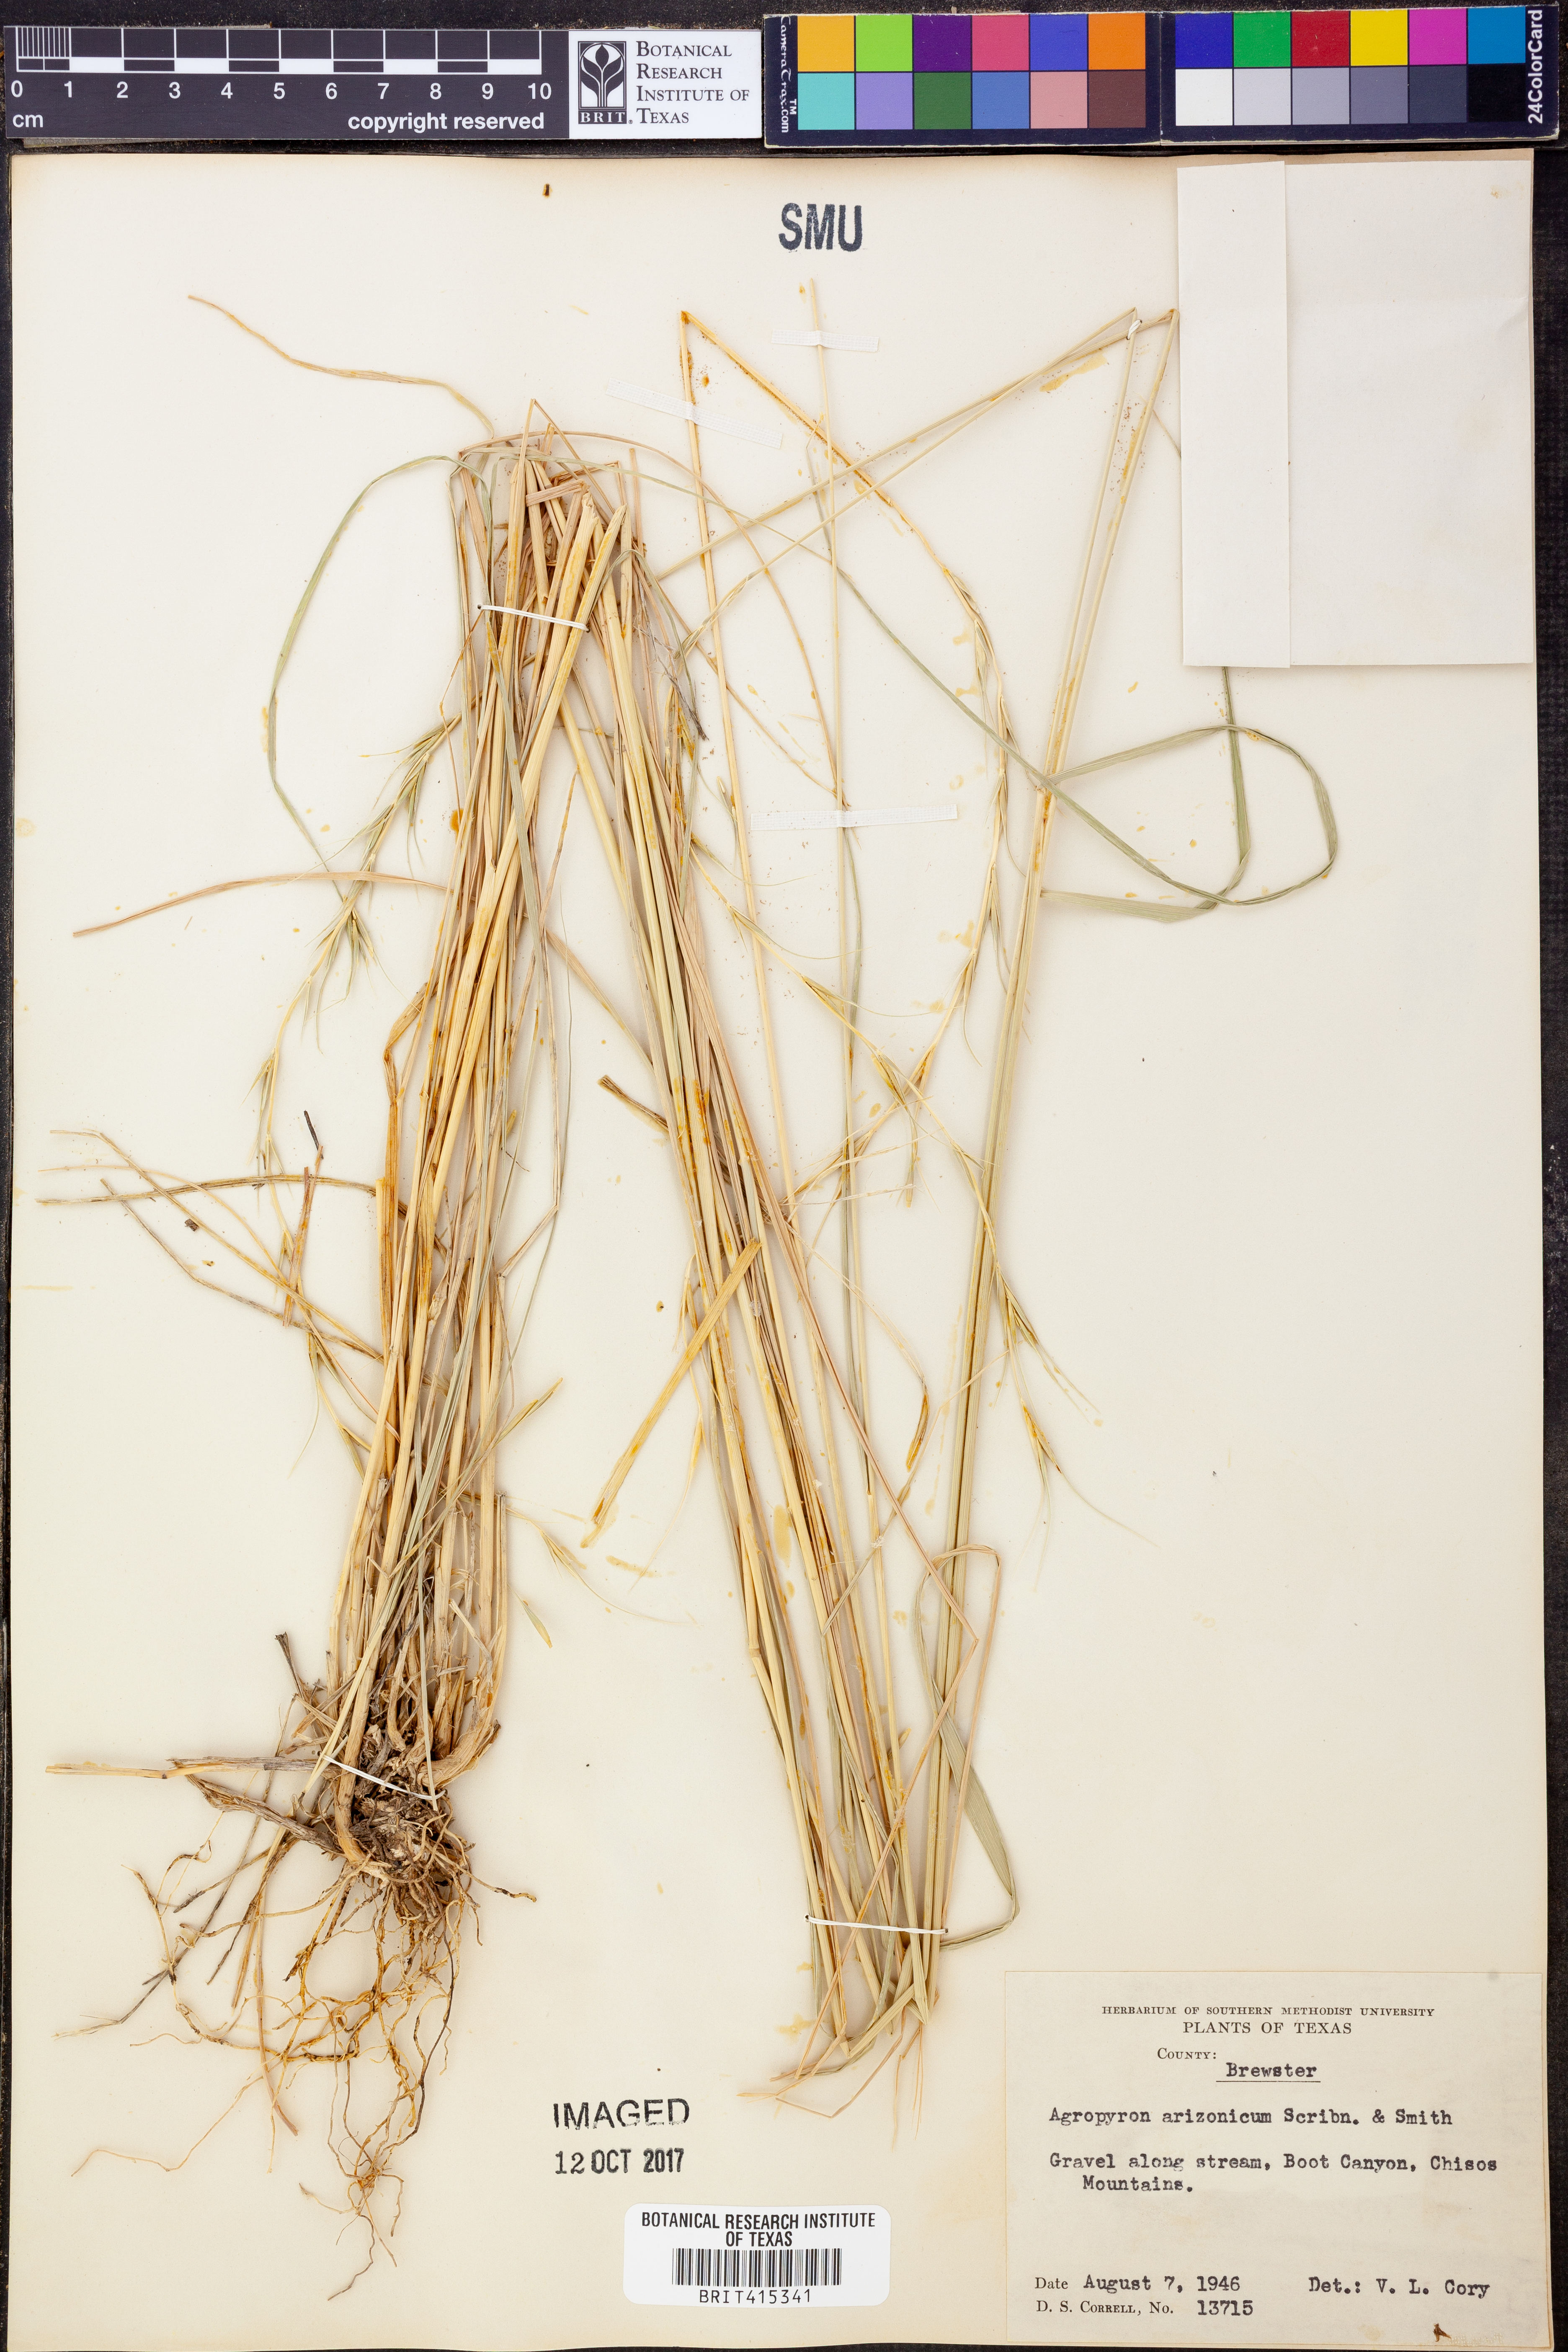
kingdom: Plantae
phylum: Tracheophyta
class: Liliopsida
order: Poales
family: Poaceae
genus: Elymus
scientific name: Elymus arizonicus
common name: Arizona wheatgrass
